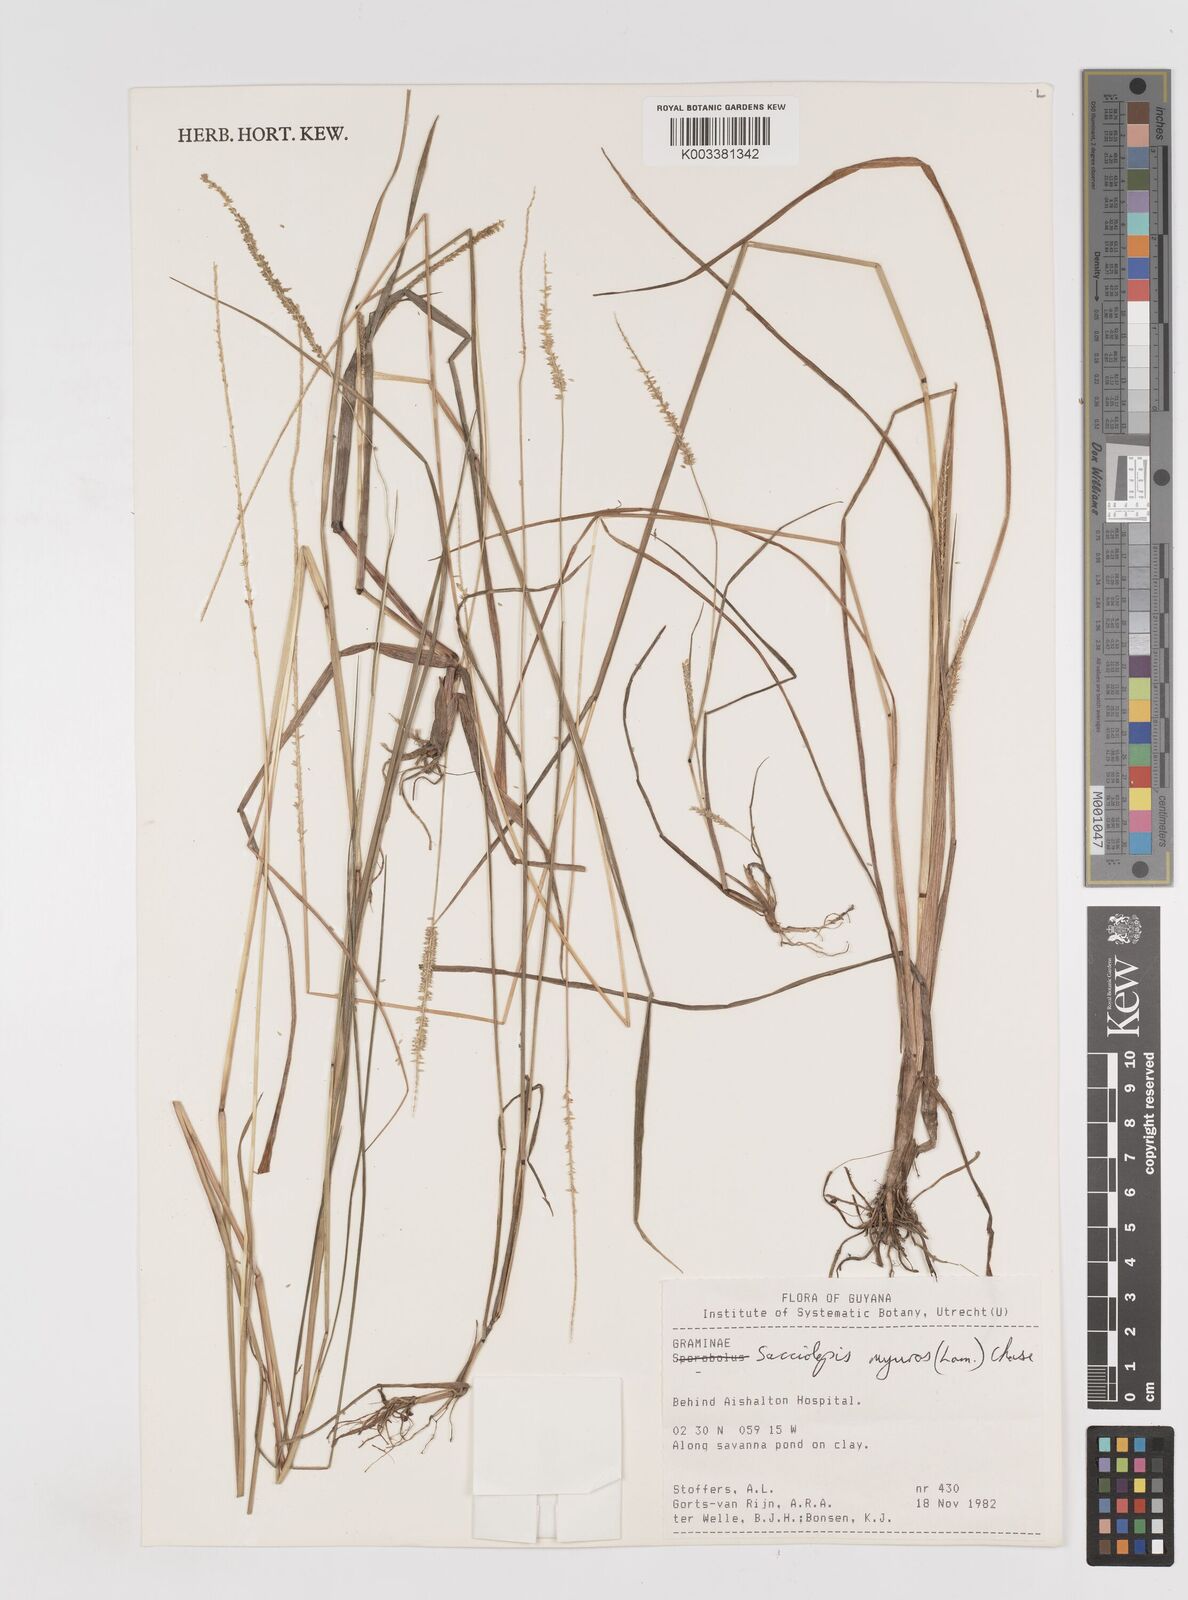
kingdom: Plantae
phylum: Tracheophyta
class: Liliopsida
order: Poales
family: Poaceae
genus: Sacciolepis
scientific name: Sacciolepis myuros
